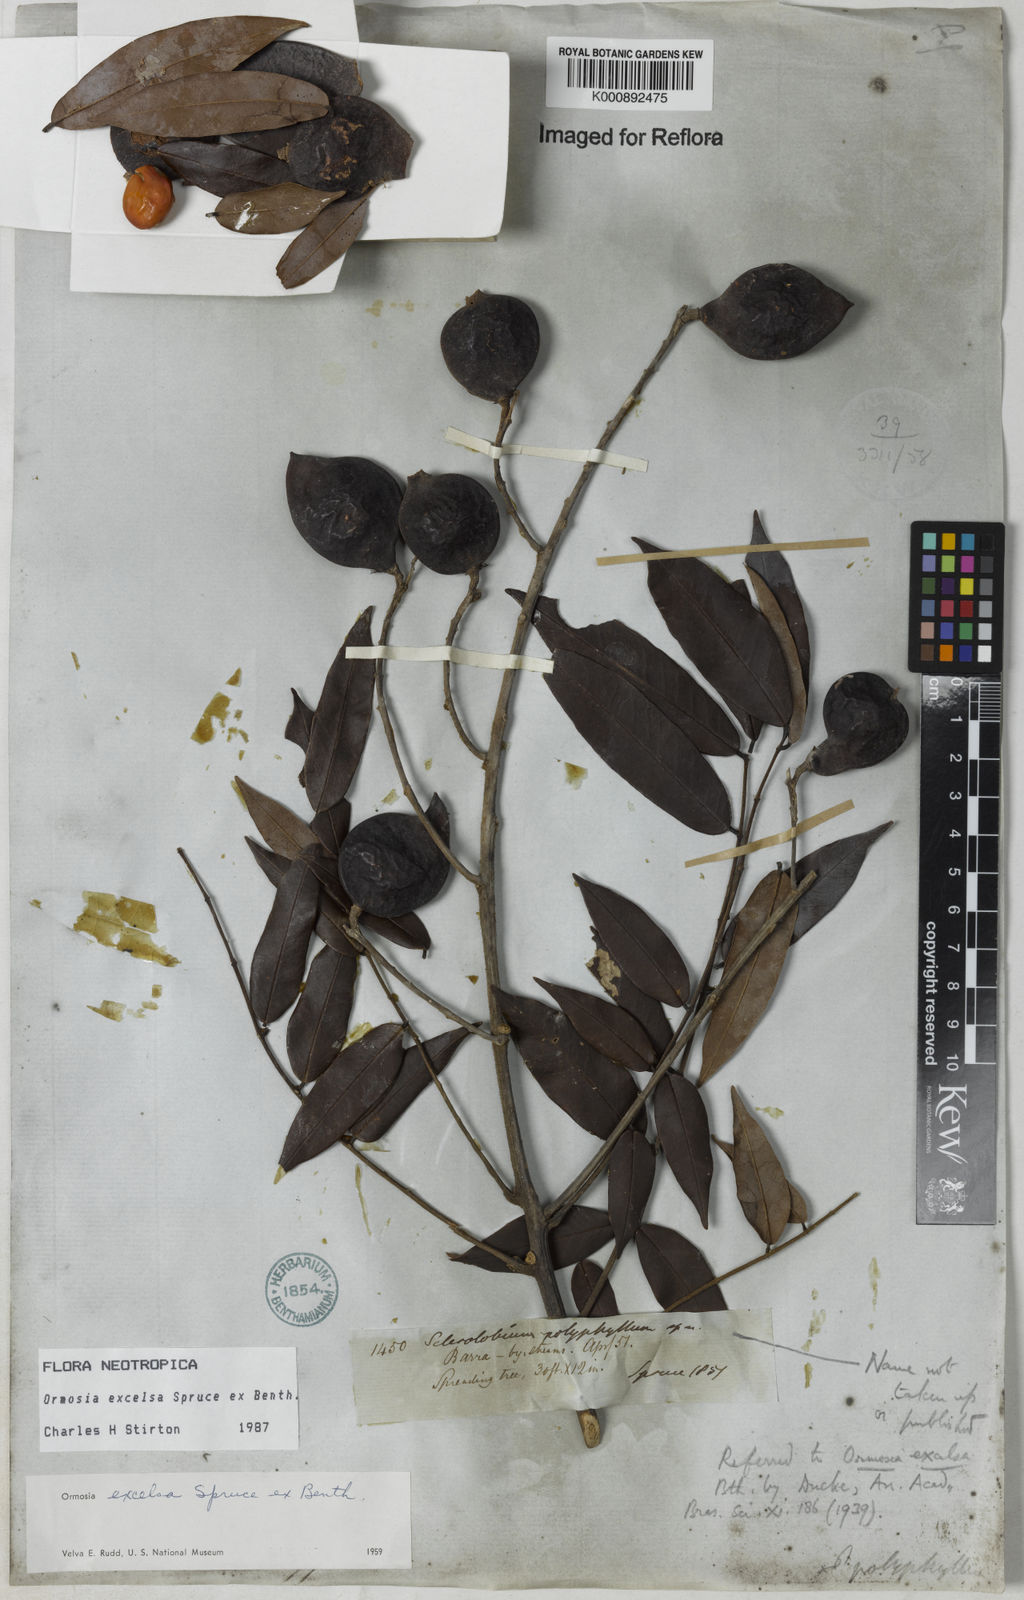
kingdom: Plantae
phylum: Tracheophyta
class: Magnoliopsida
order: Fabales
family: Fabaceae
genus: Ormosia
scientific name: Ormosia excelsa
